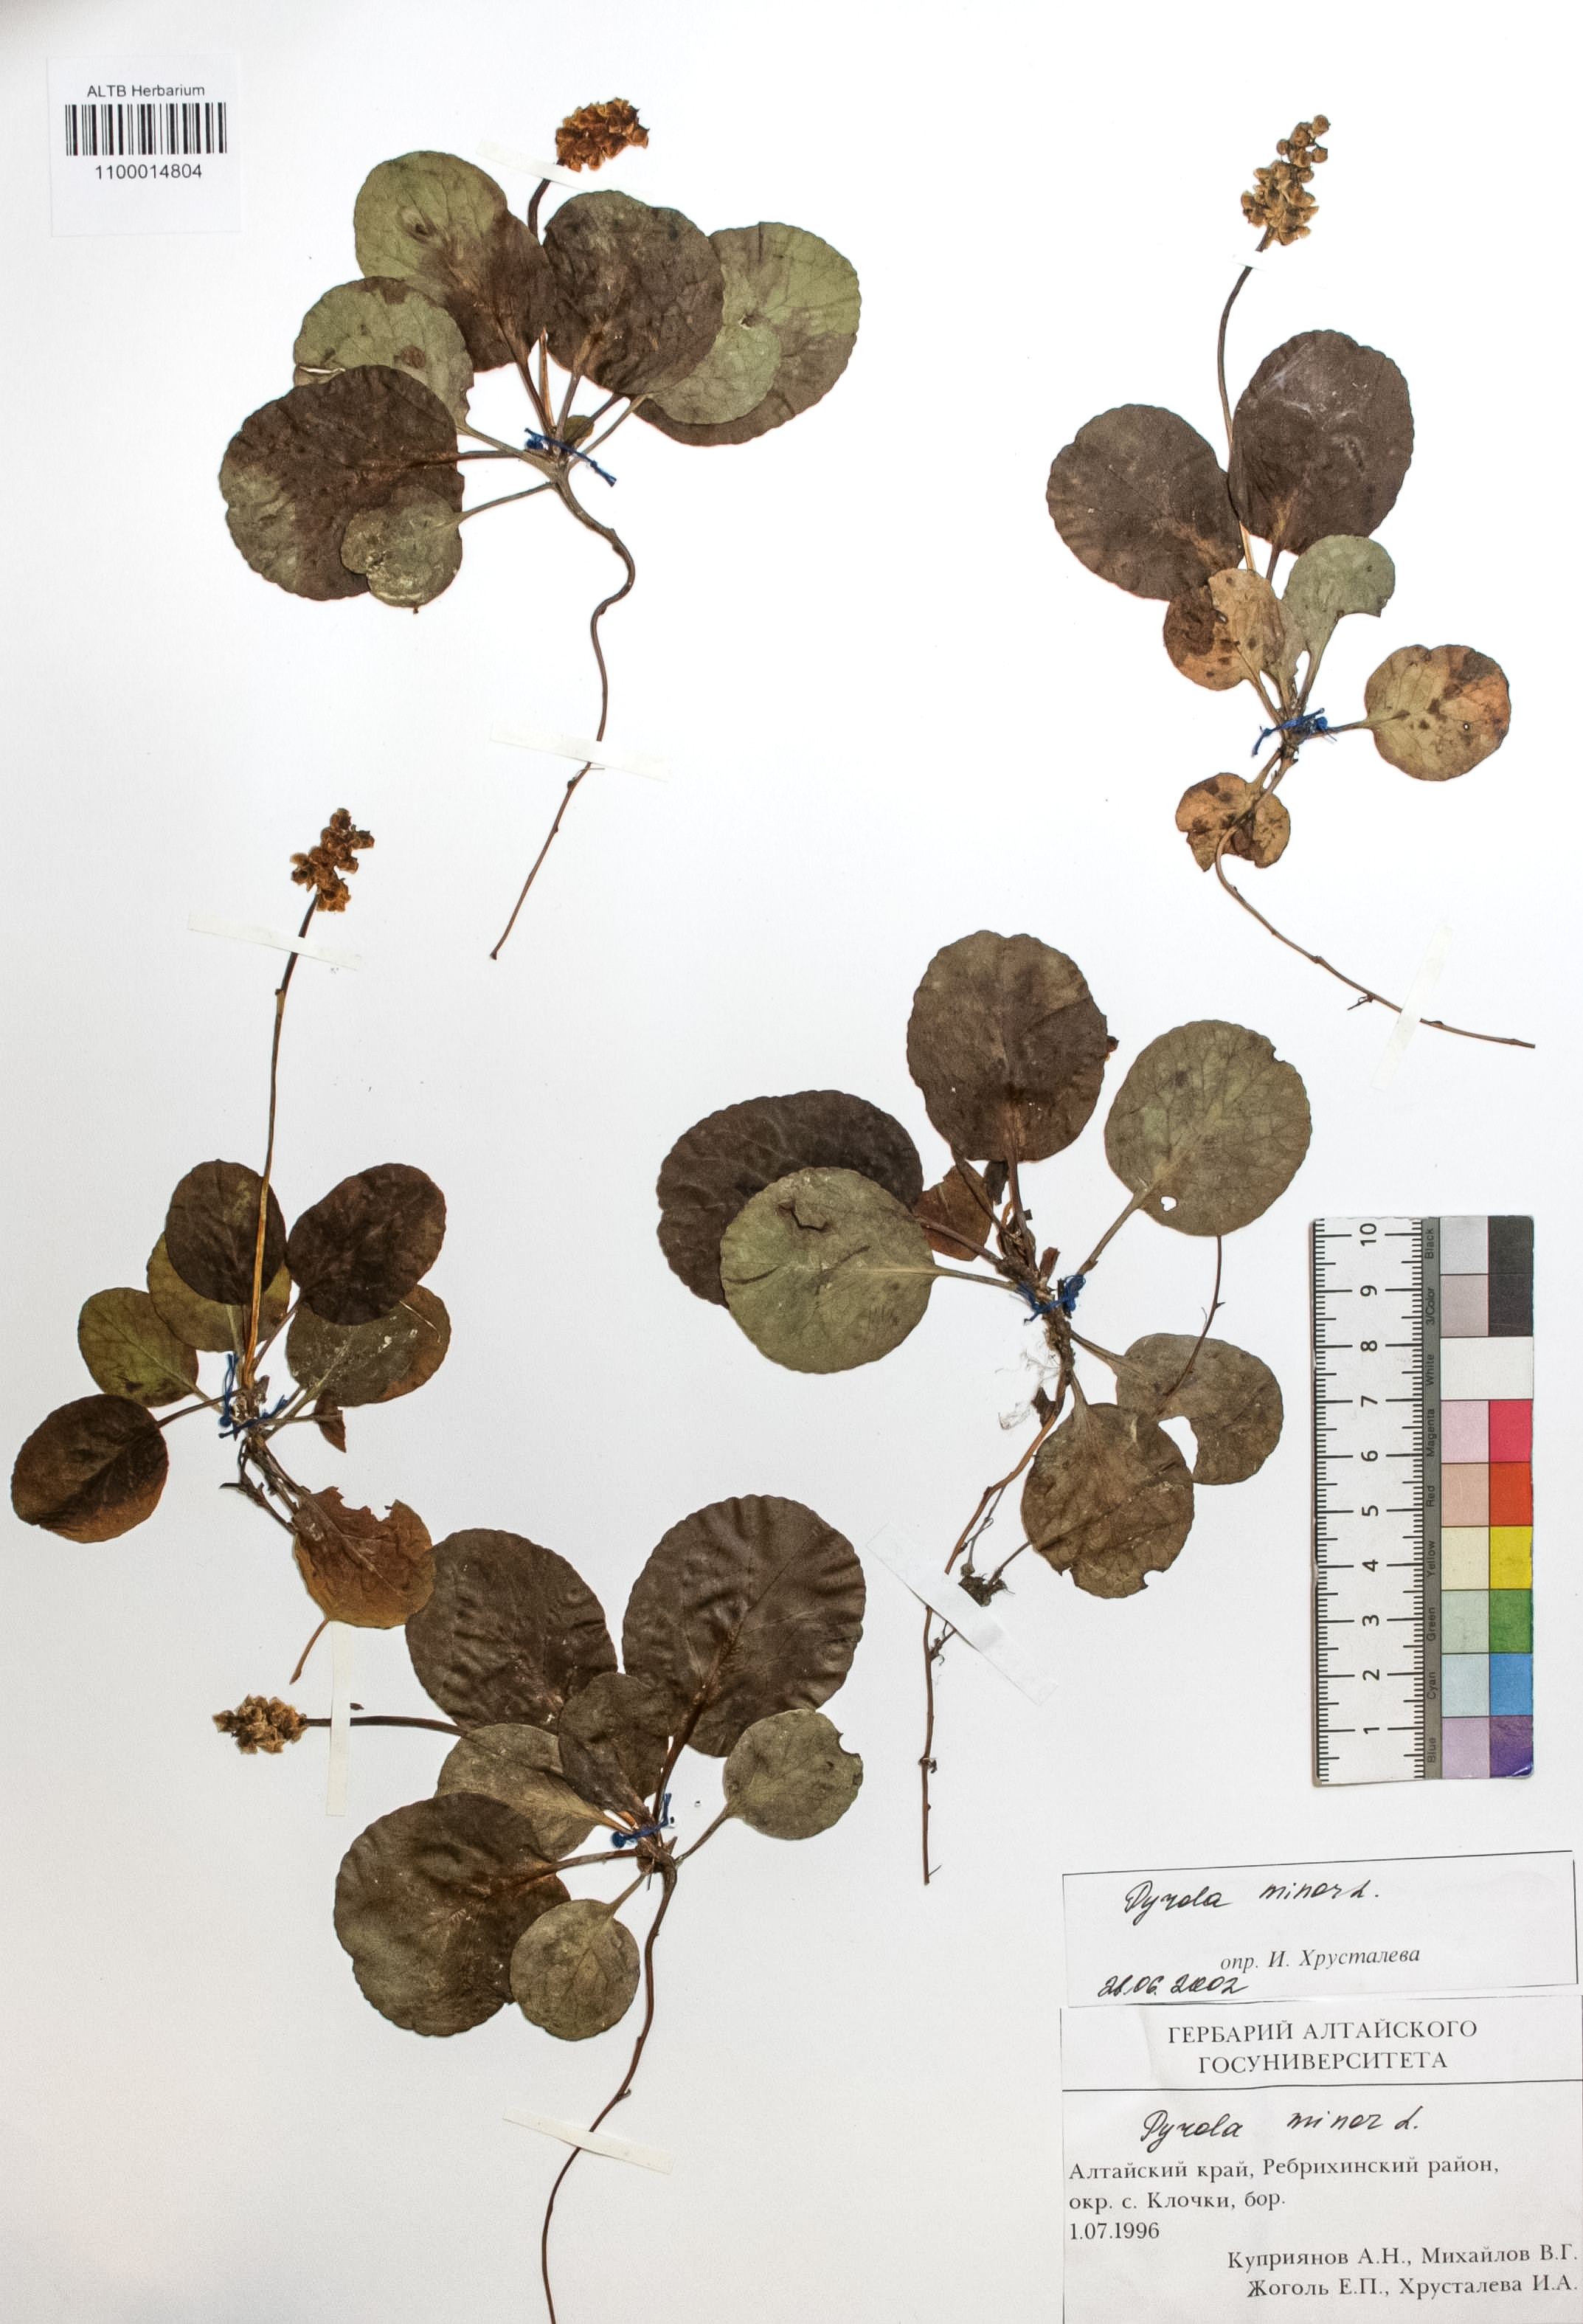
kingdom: Plantae
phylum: Tracheophyta
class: Magnoliopsida
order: Ericales
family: Ericaceae
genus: Pyrola
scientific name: Pyrola minor
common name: Common wintergreen
